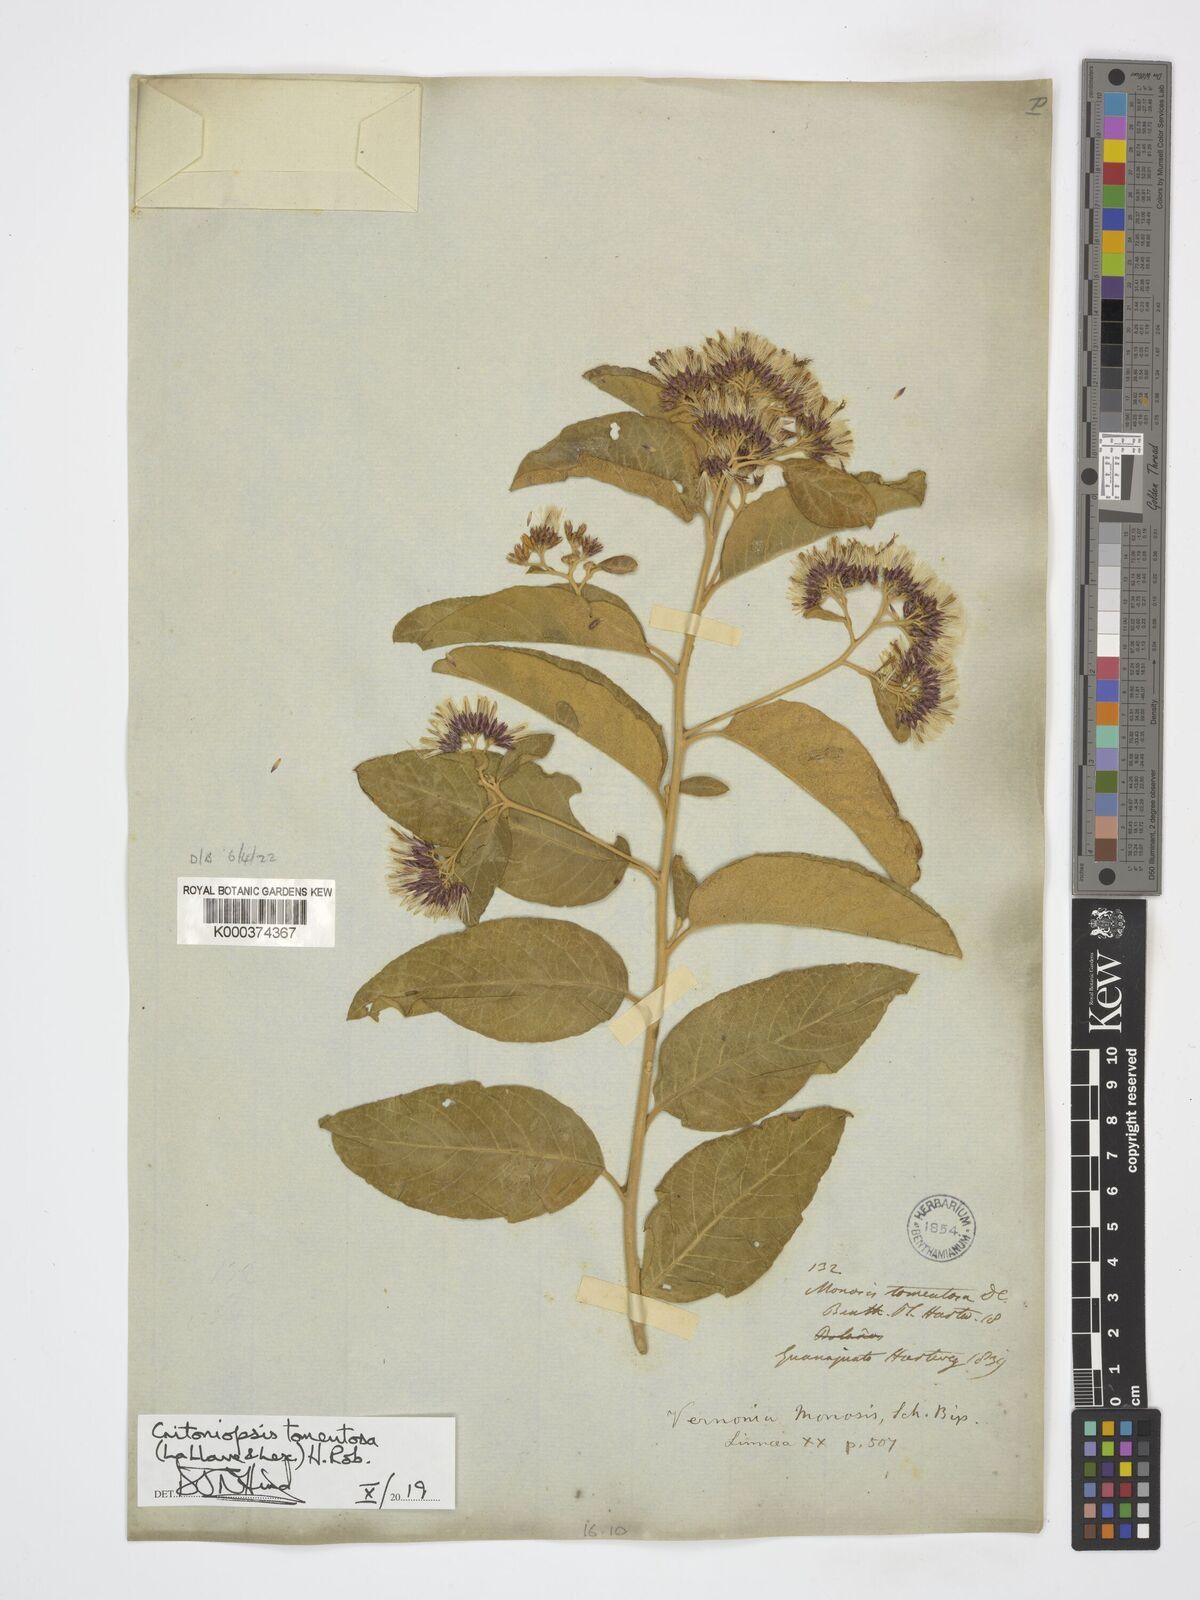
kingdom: Plantae
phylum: Tracheophyta
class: Magnoliopsida
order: Asterales
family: Asteraceae
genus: Eremosis
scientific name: Eremosis tomentosa
